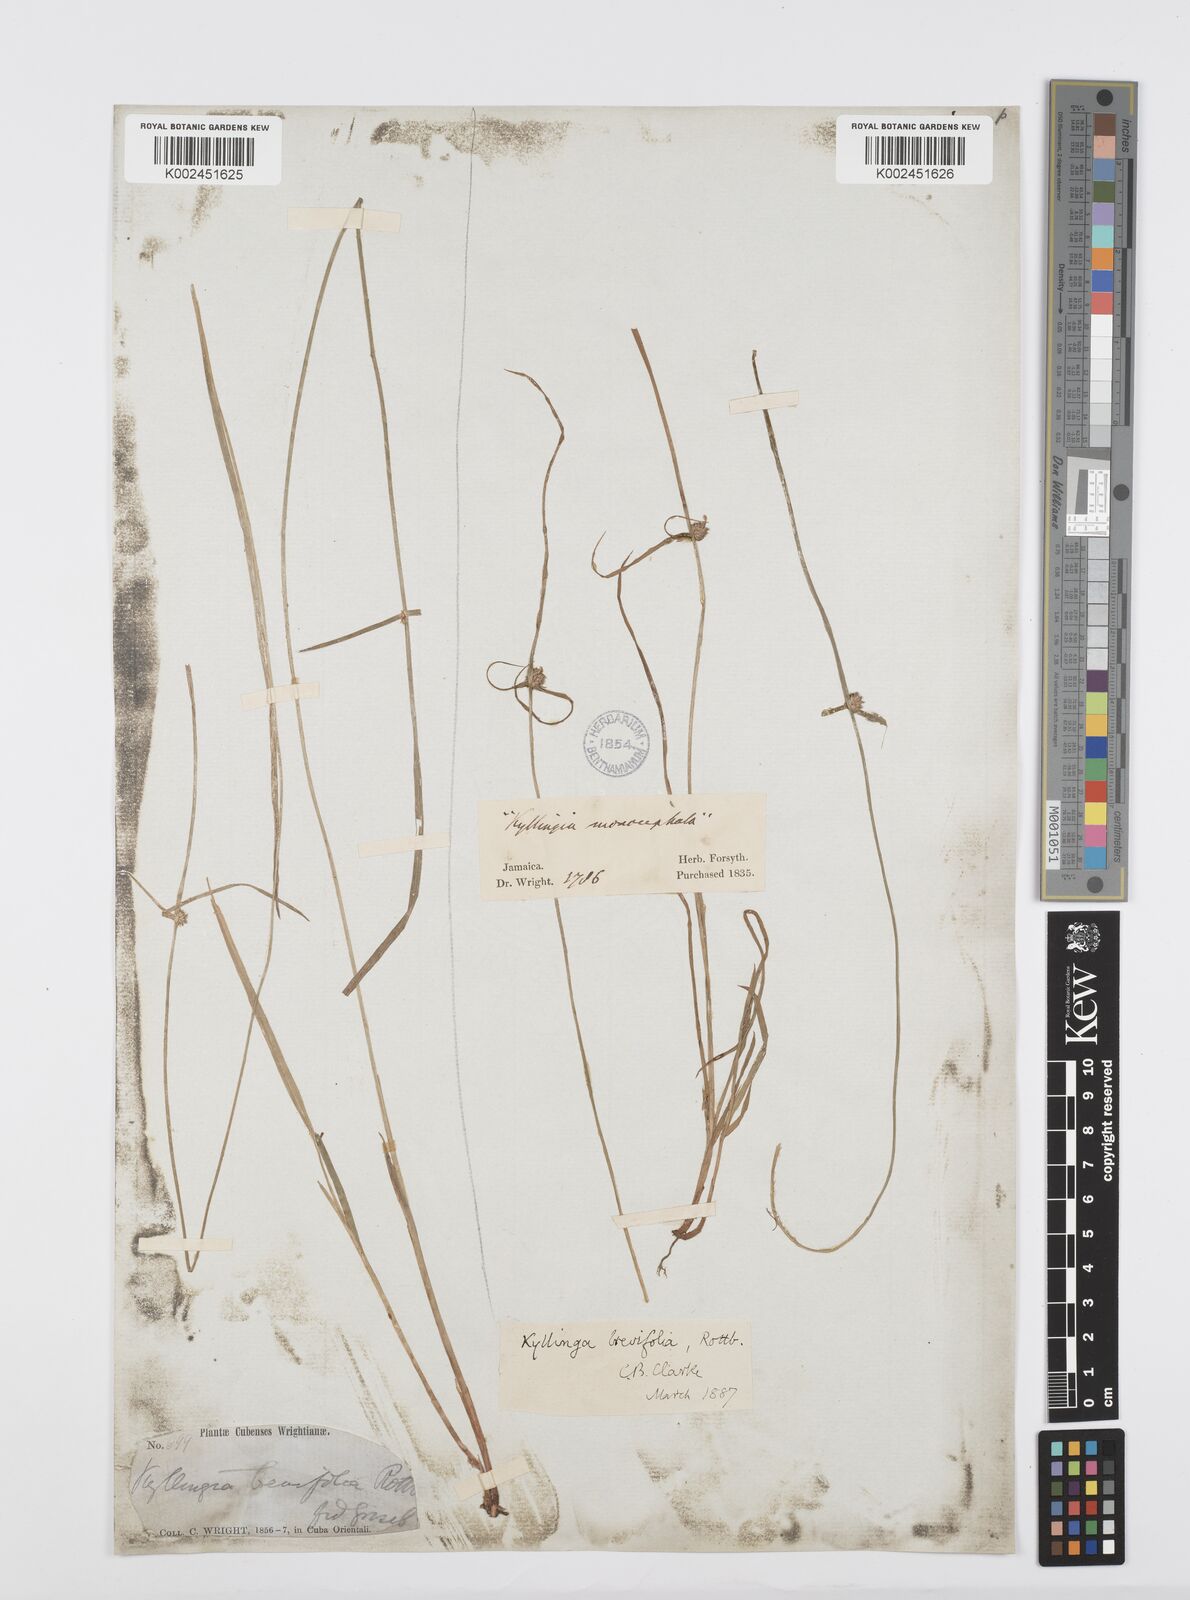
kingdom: Plantae
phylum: Tracheophyta
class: Liliopsida
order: Poales
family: Cyperaceae
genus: Cyperus
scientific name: Cyperus brevifolius
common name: Globe kyllinga
